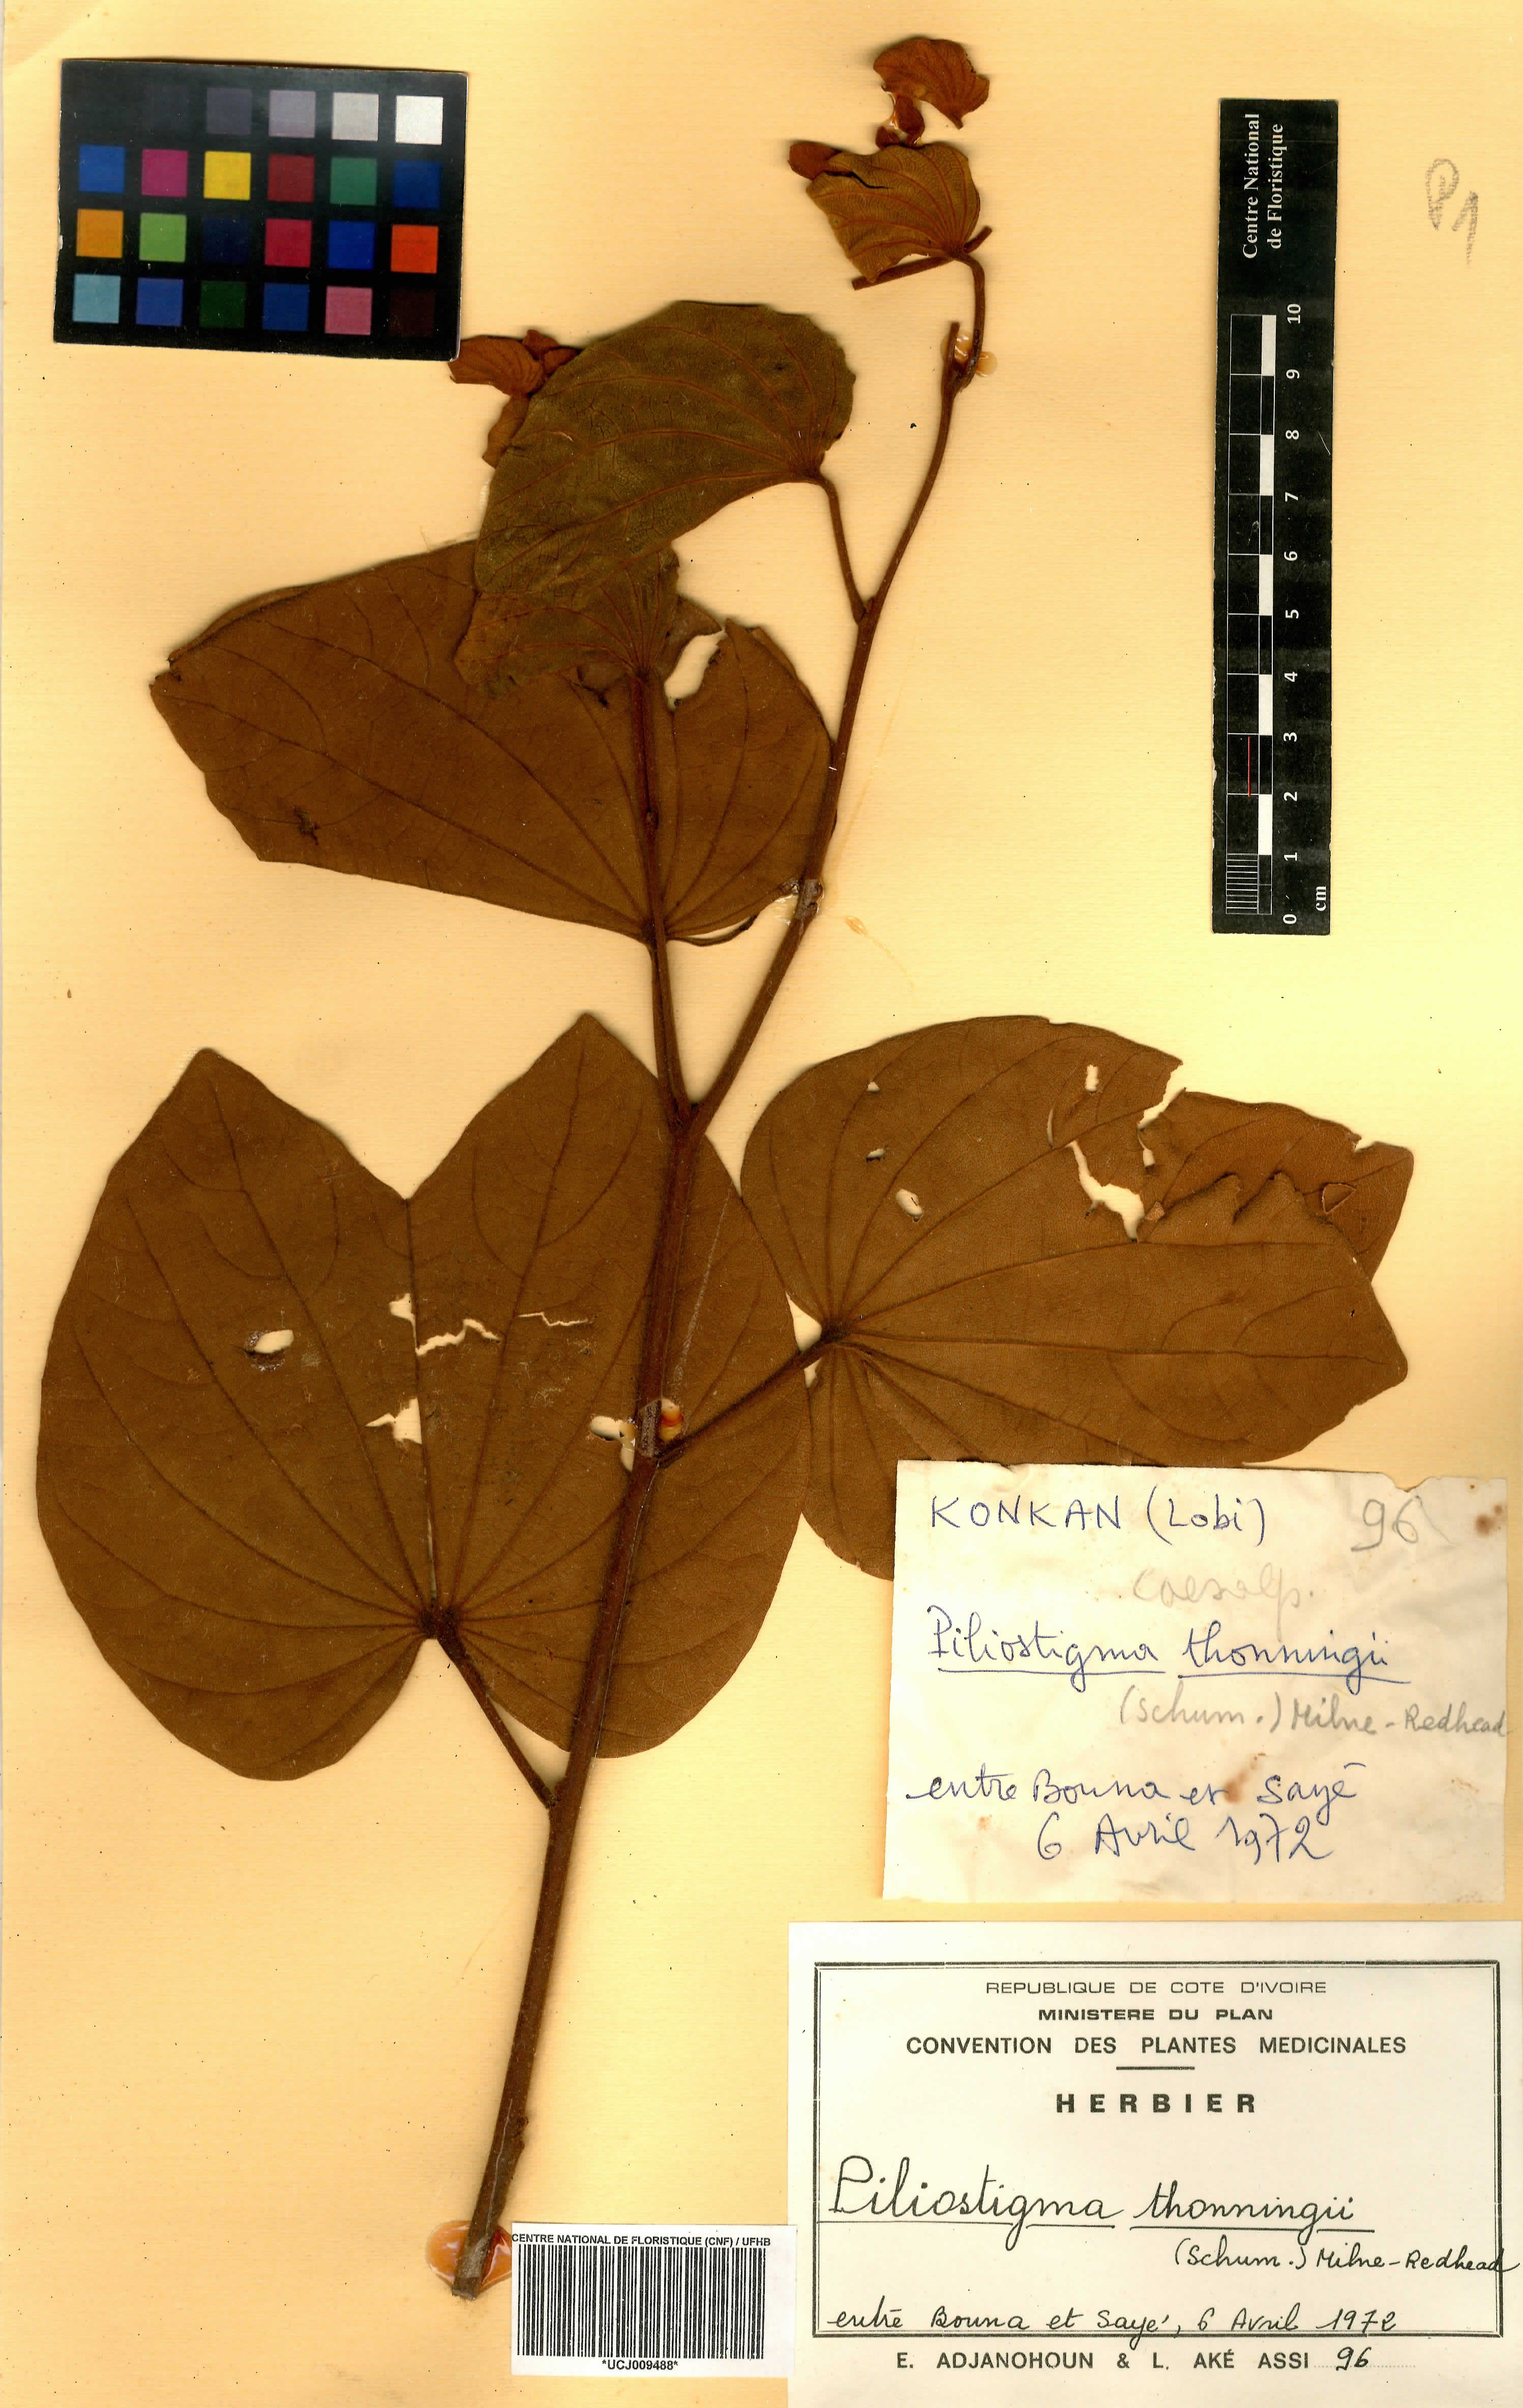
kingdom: Plantae
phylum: Tracheophyta
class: Magnoliopsida
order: Fabales
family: Fabaceae
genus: Piliostigma
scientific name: Piliostigma thonningii
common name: Kao
